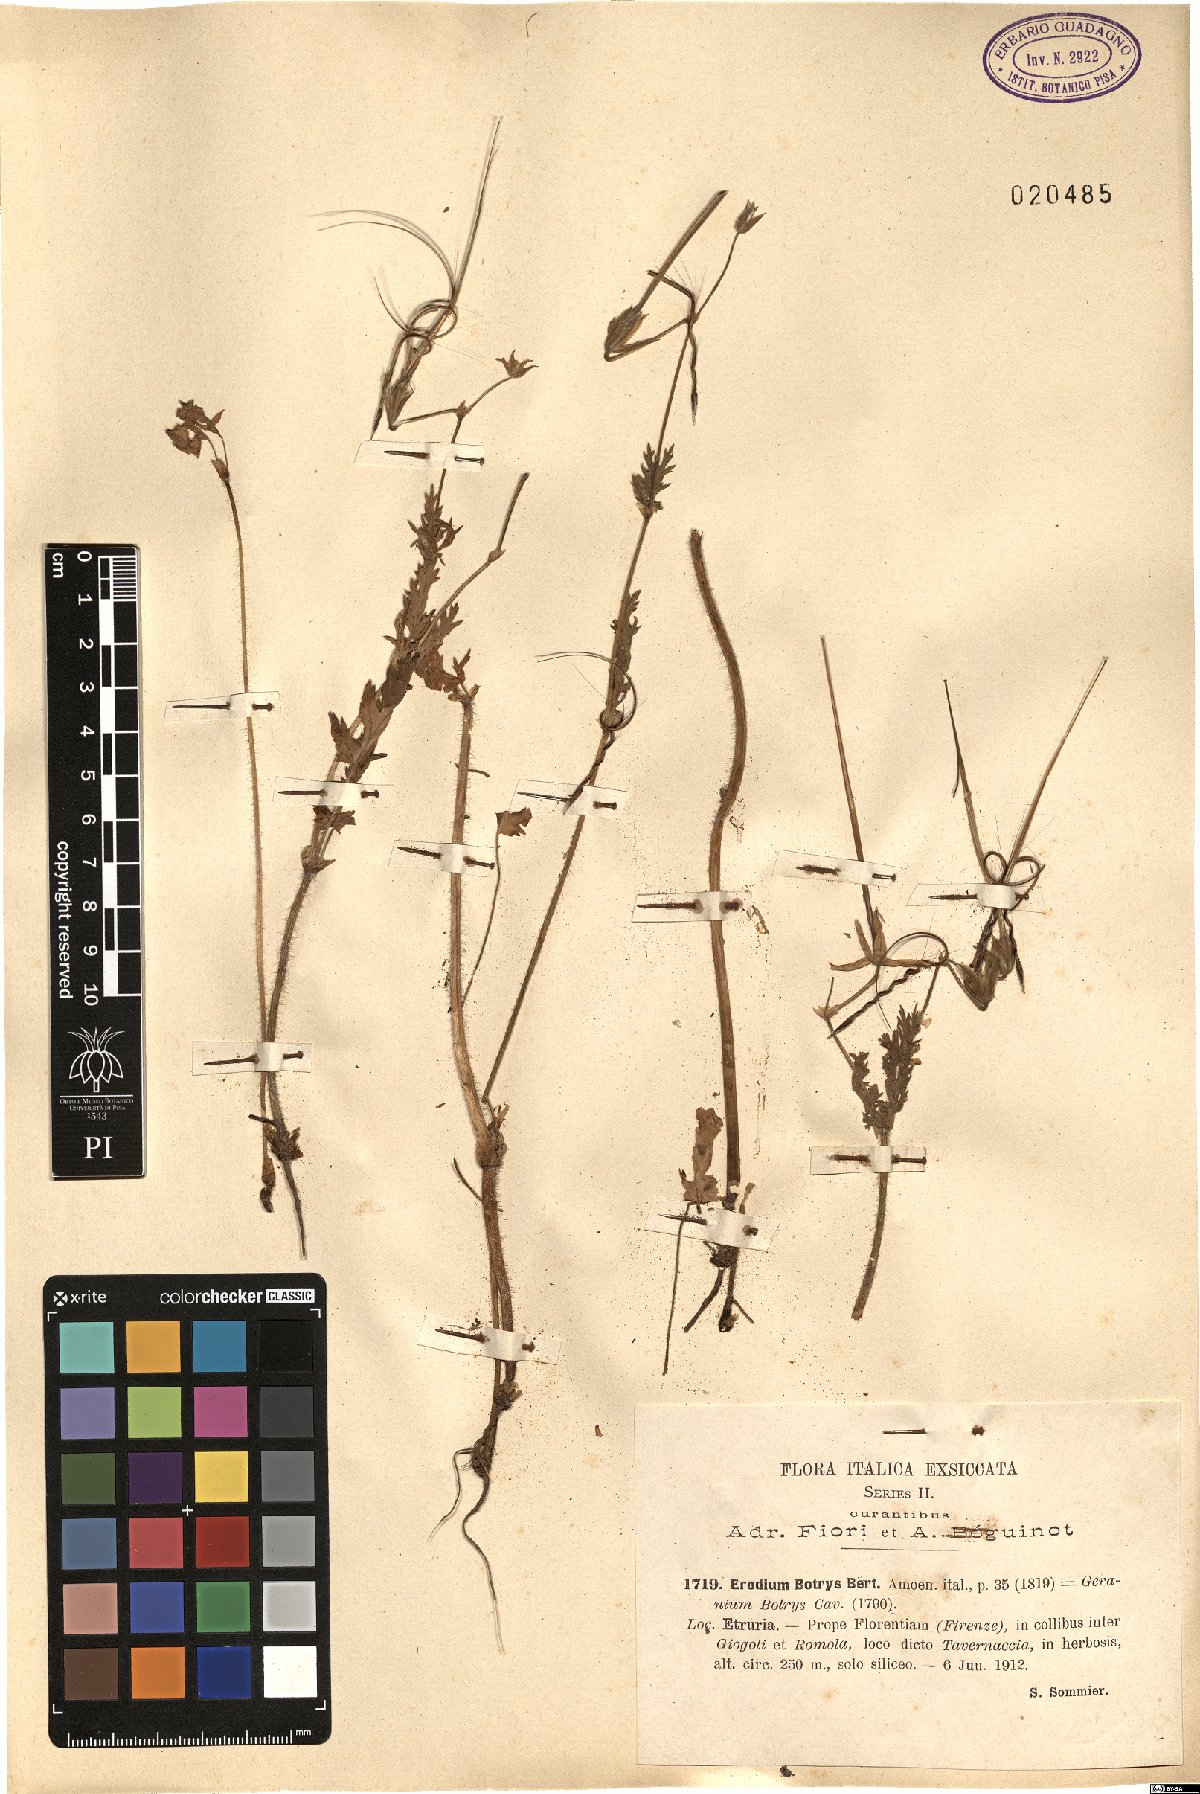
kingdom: Plantae
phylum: Tracheophyta
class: Magnoliopsida
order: Geraniales
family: Geraniaceae
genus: Erodium
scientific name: Erodium botrys
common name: Mediterranean stork's-bill
